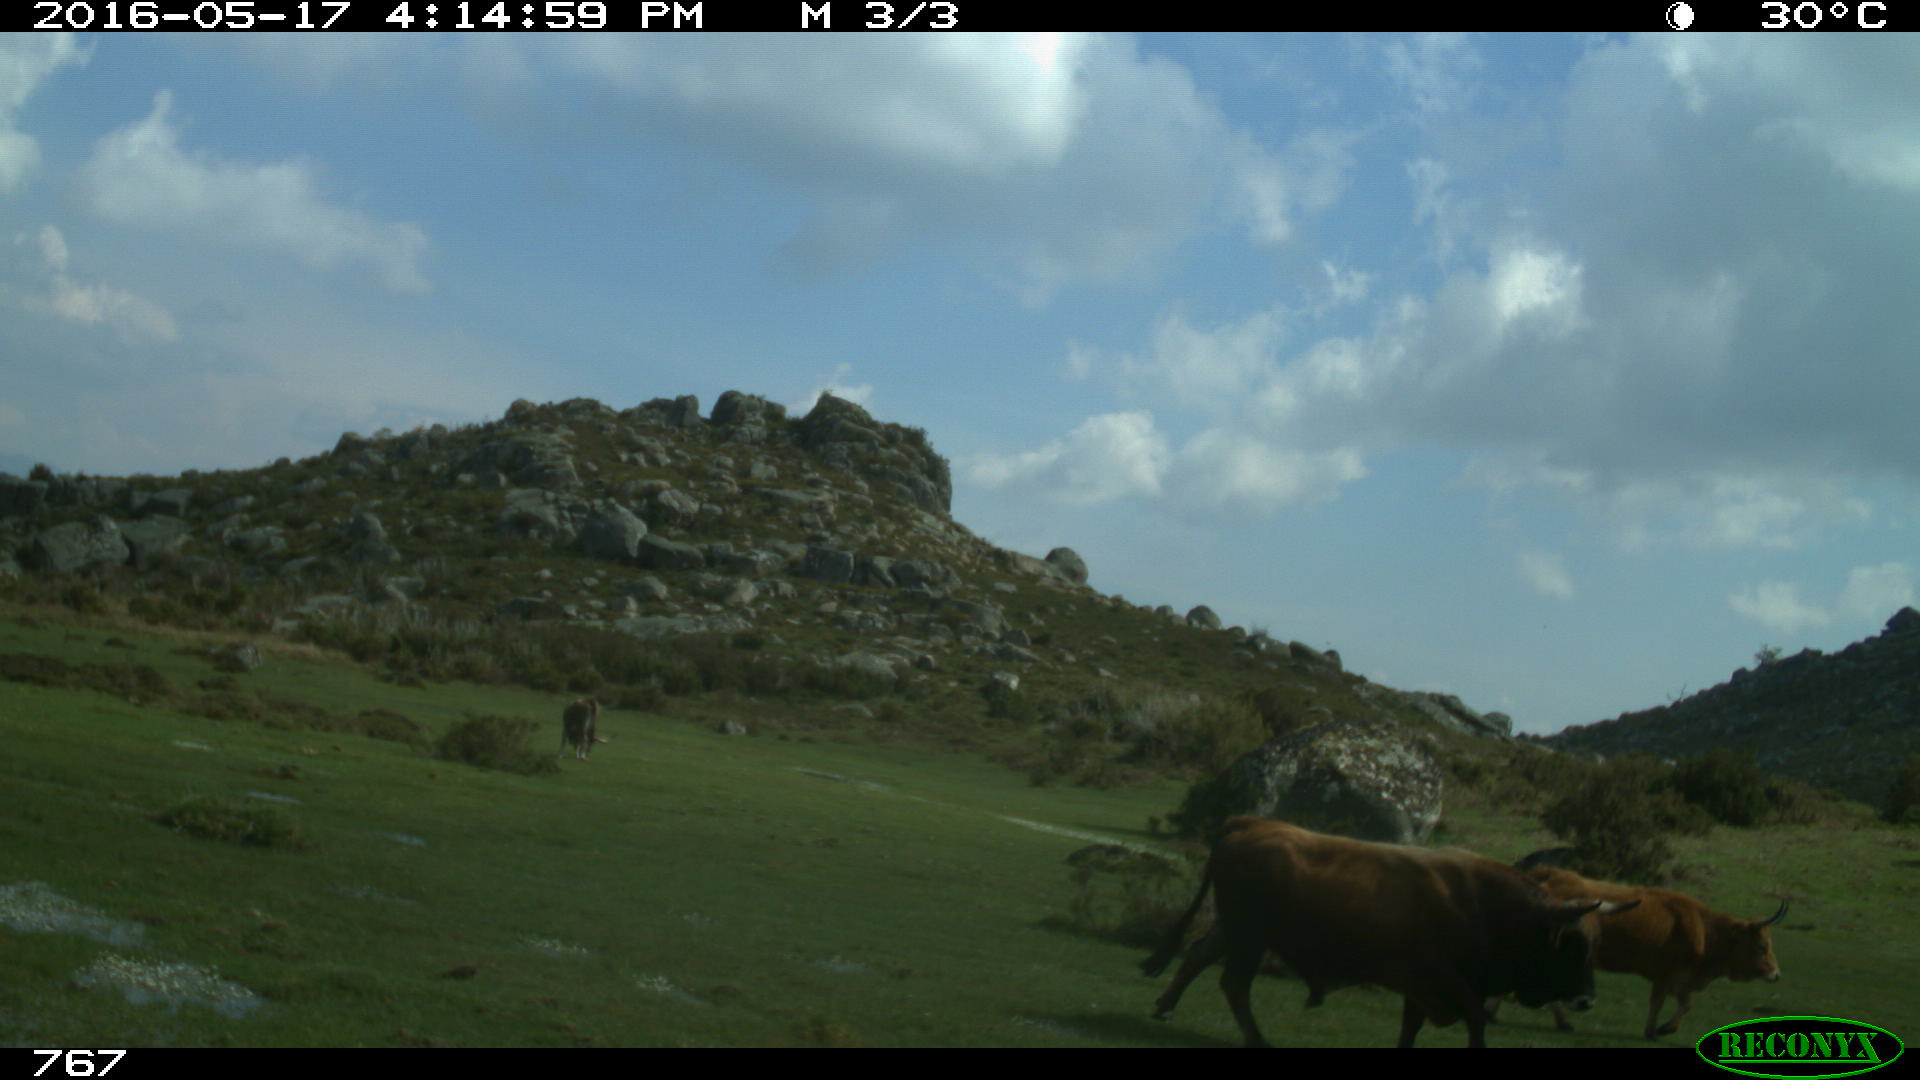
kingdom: Animalia
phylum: Chordata
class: Mammalia
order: Artiodactyla
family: Bovidae
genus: Bos
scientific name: Bos taurus
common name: Domesticated cattle
